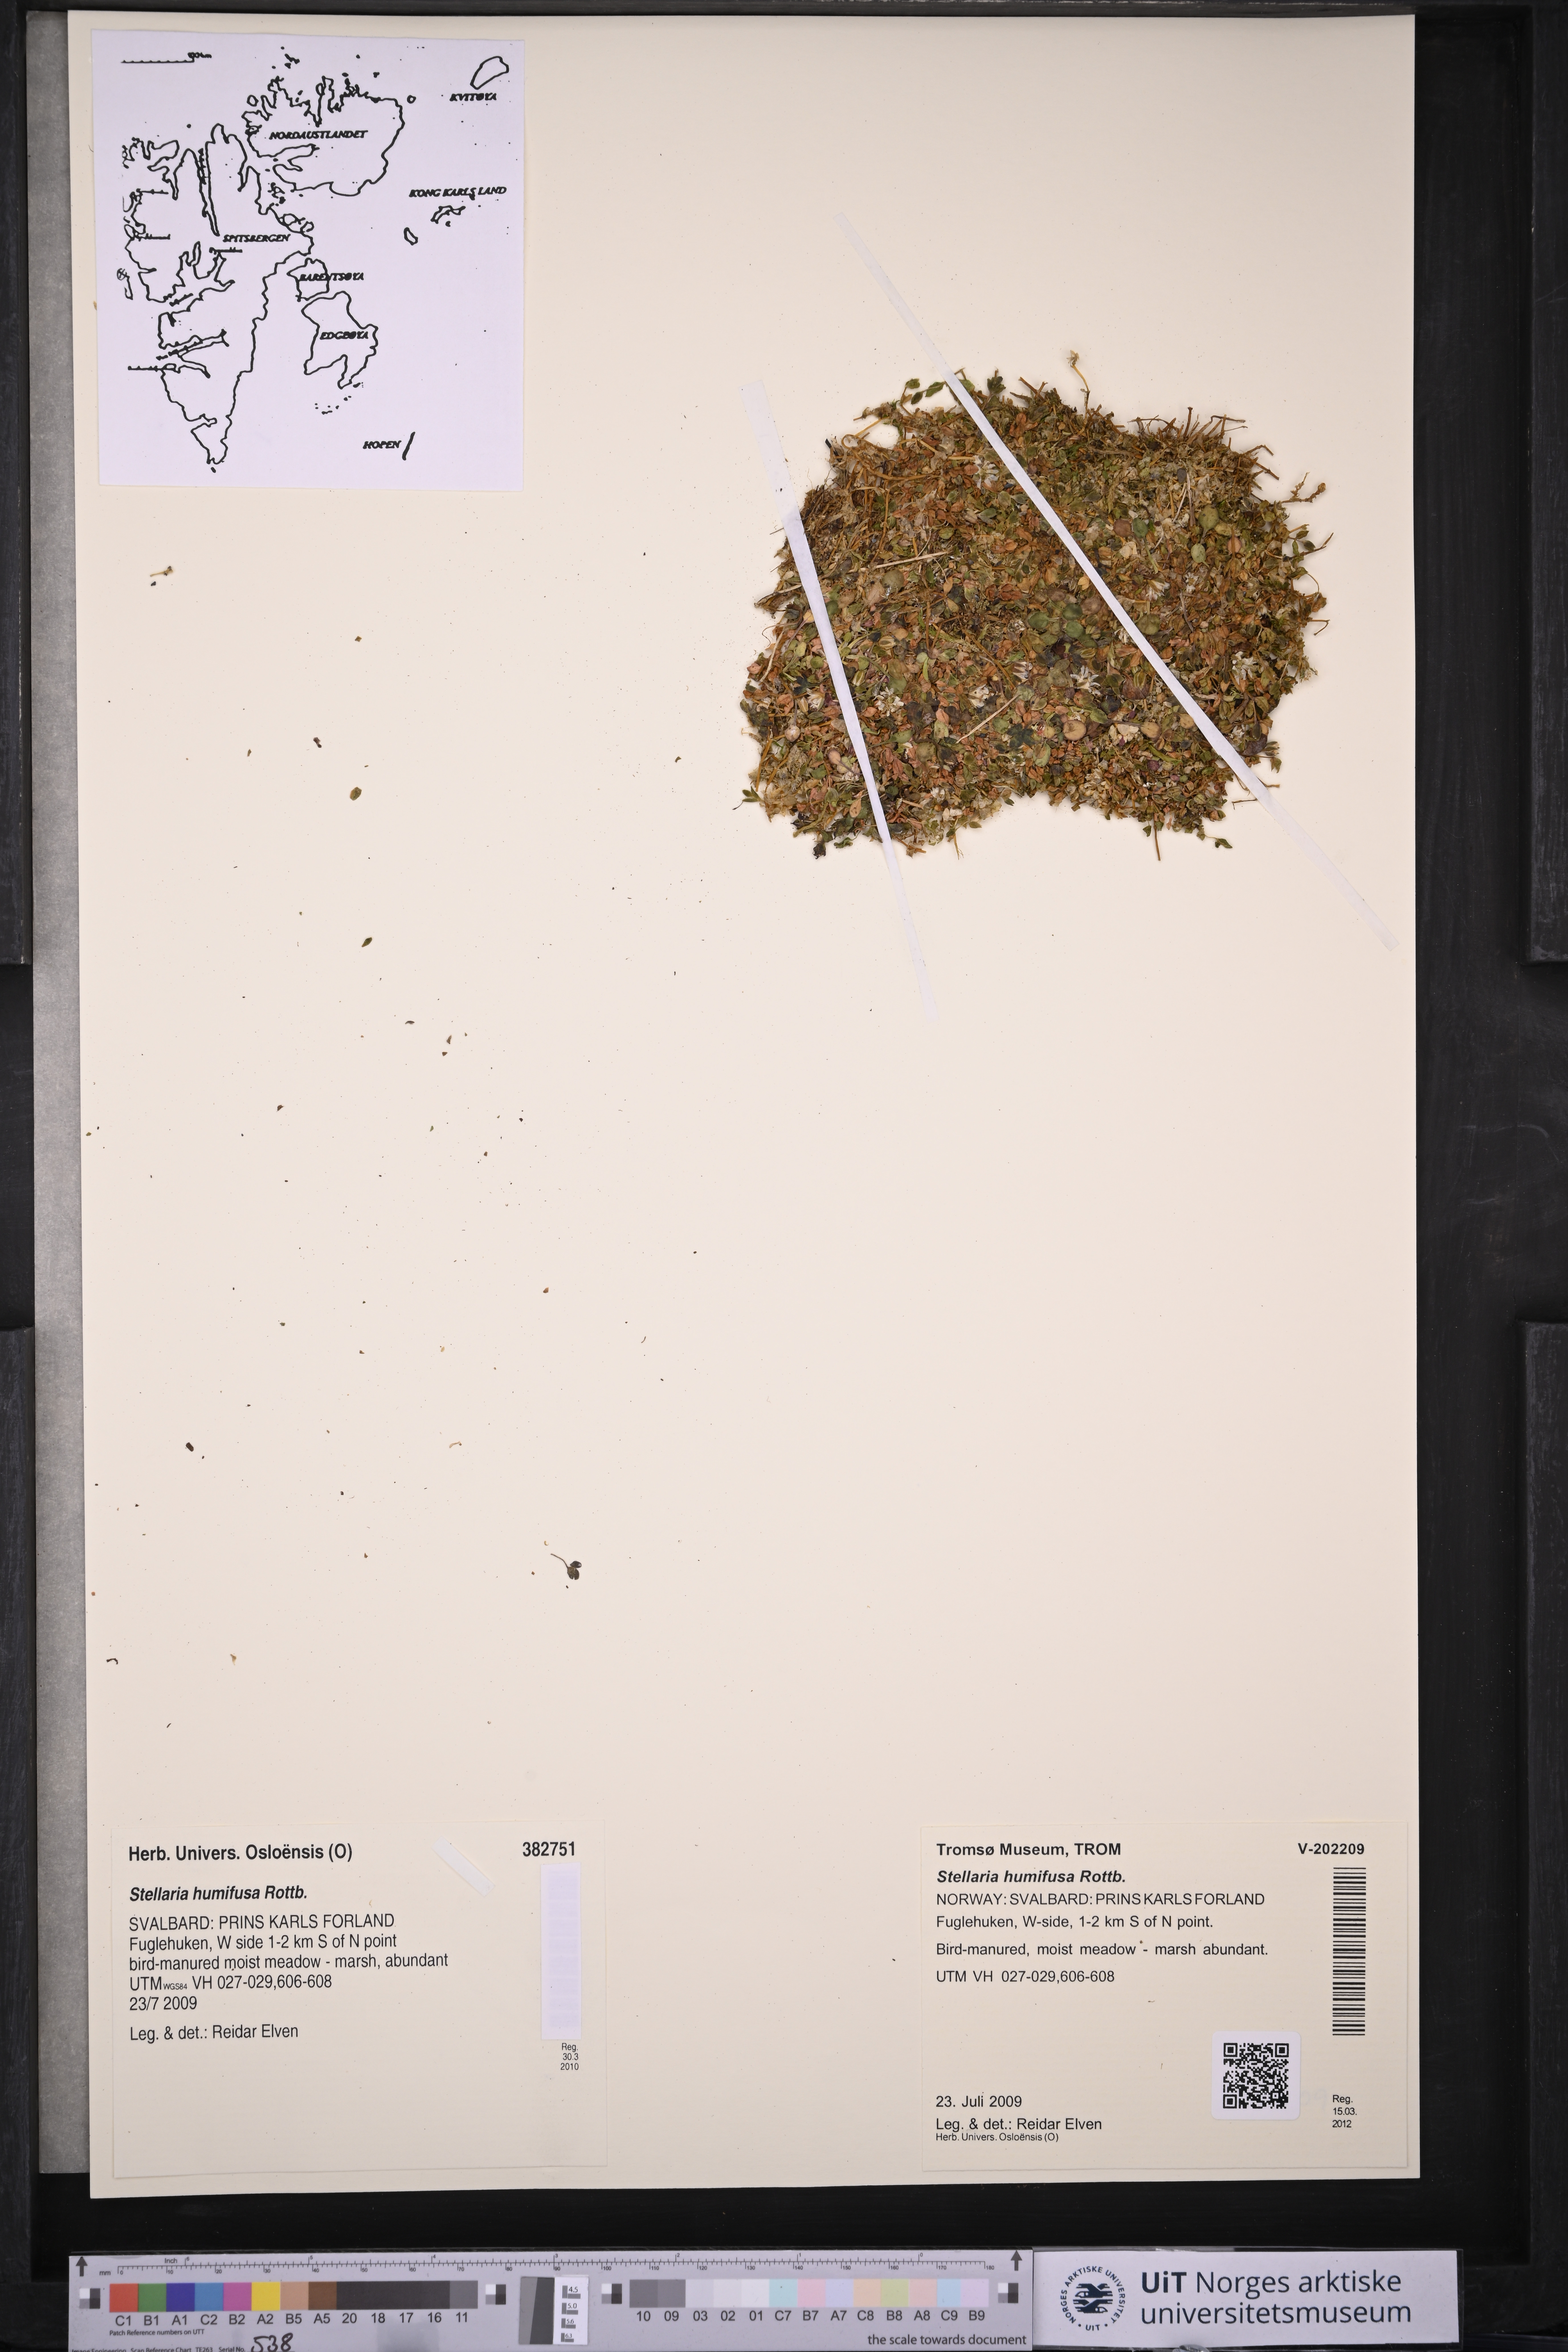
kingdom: Plantae
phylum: Tracheophyta
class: Magnoliopsida
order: Caryophyllales
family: Caryophyllaceae
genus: Stellaria
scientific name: Stellaria humifusa
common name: Creeping starwort
